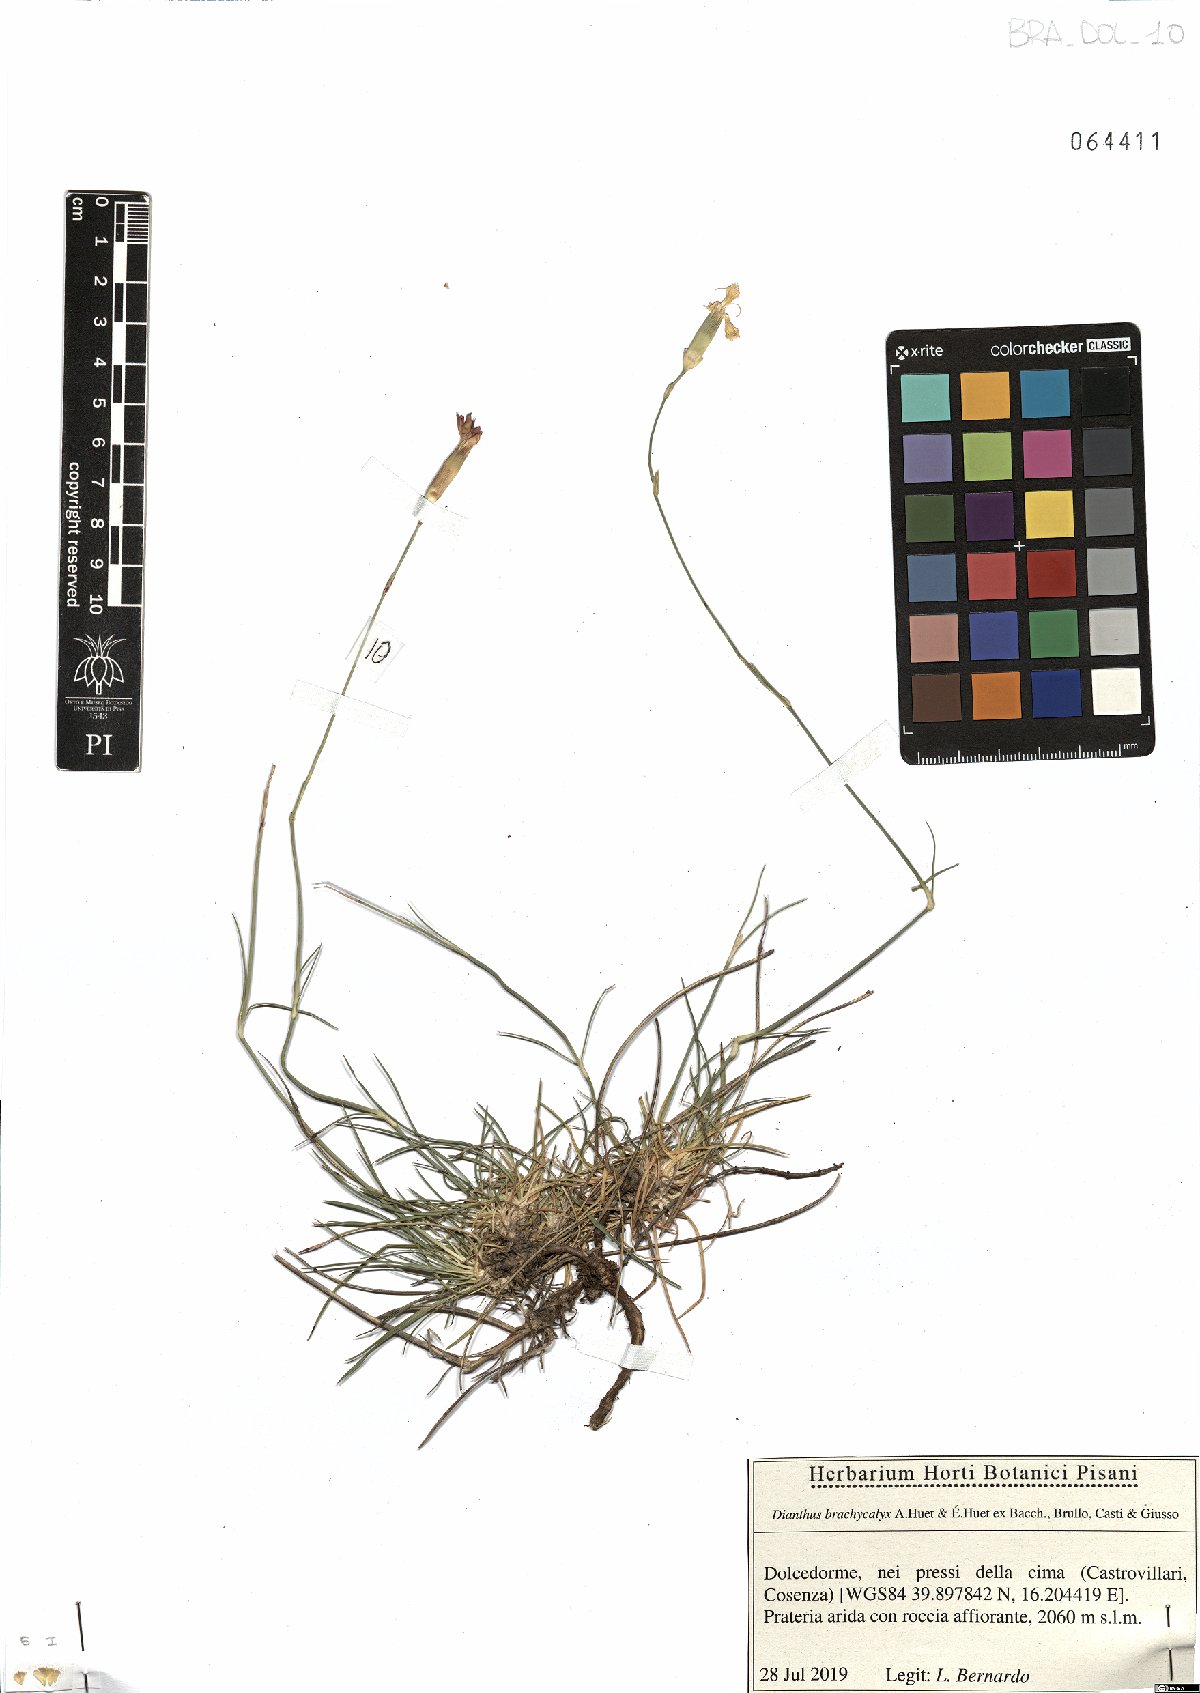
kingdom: Plantae
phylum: Tracheophyta
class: Magnoliopsida
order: Caryophyllales
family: Caryophyllaceae
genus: Dianthus
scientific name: Dianthus brachycalyx
